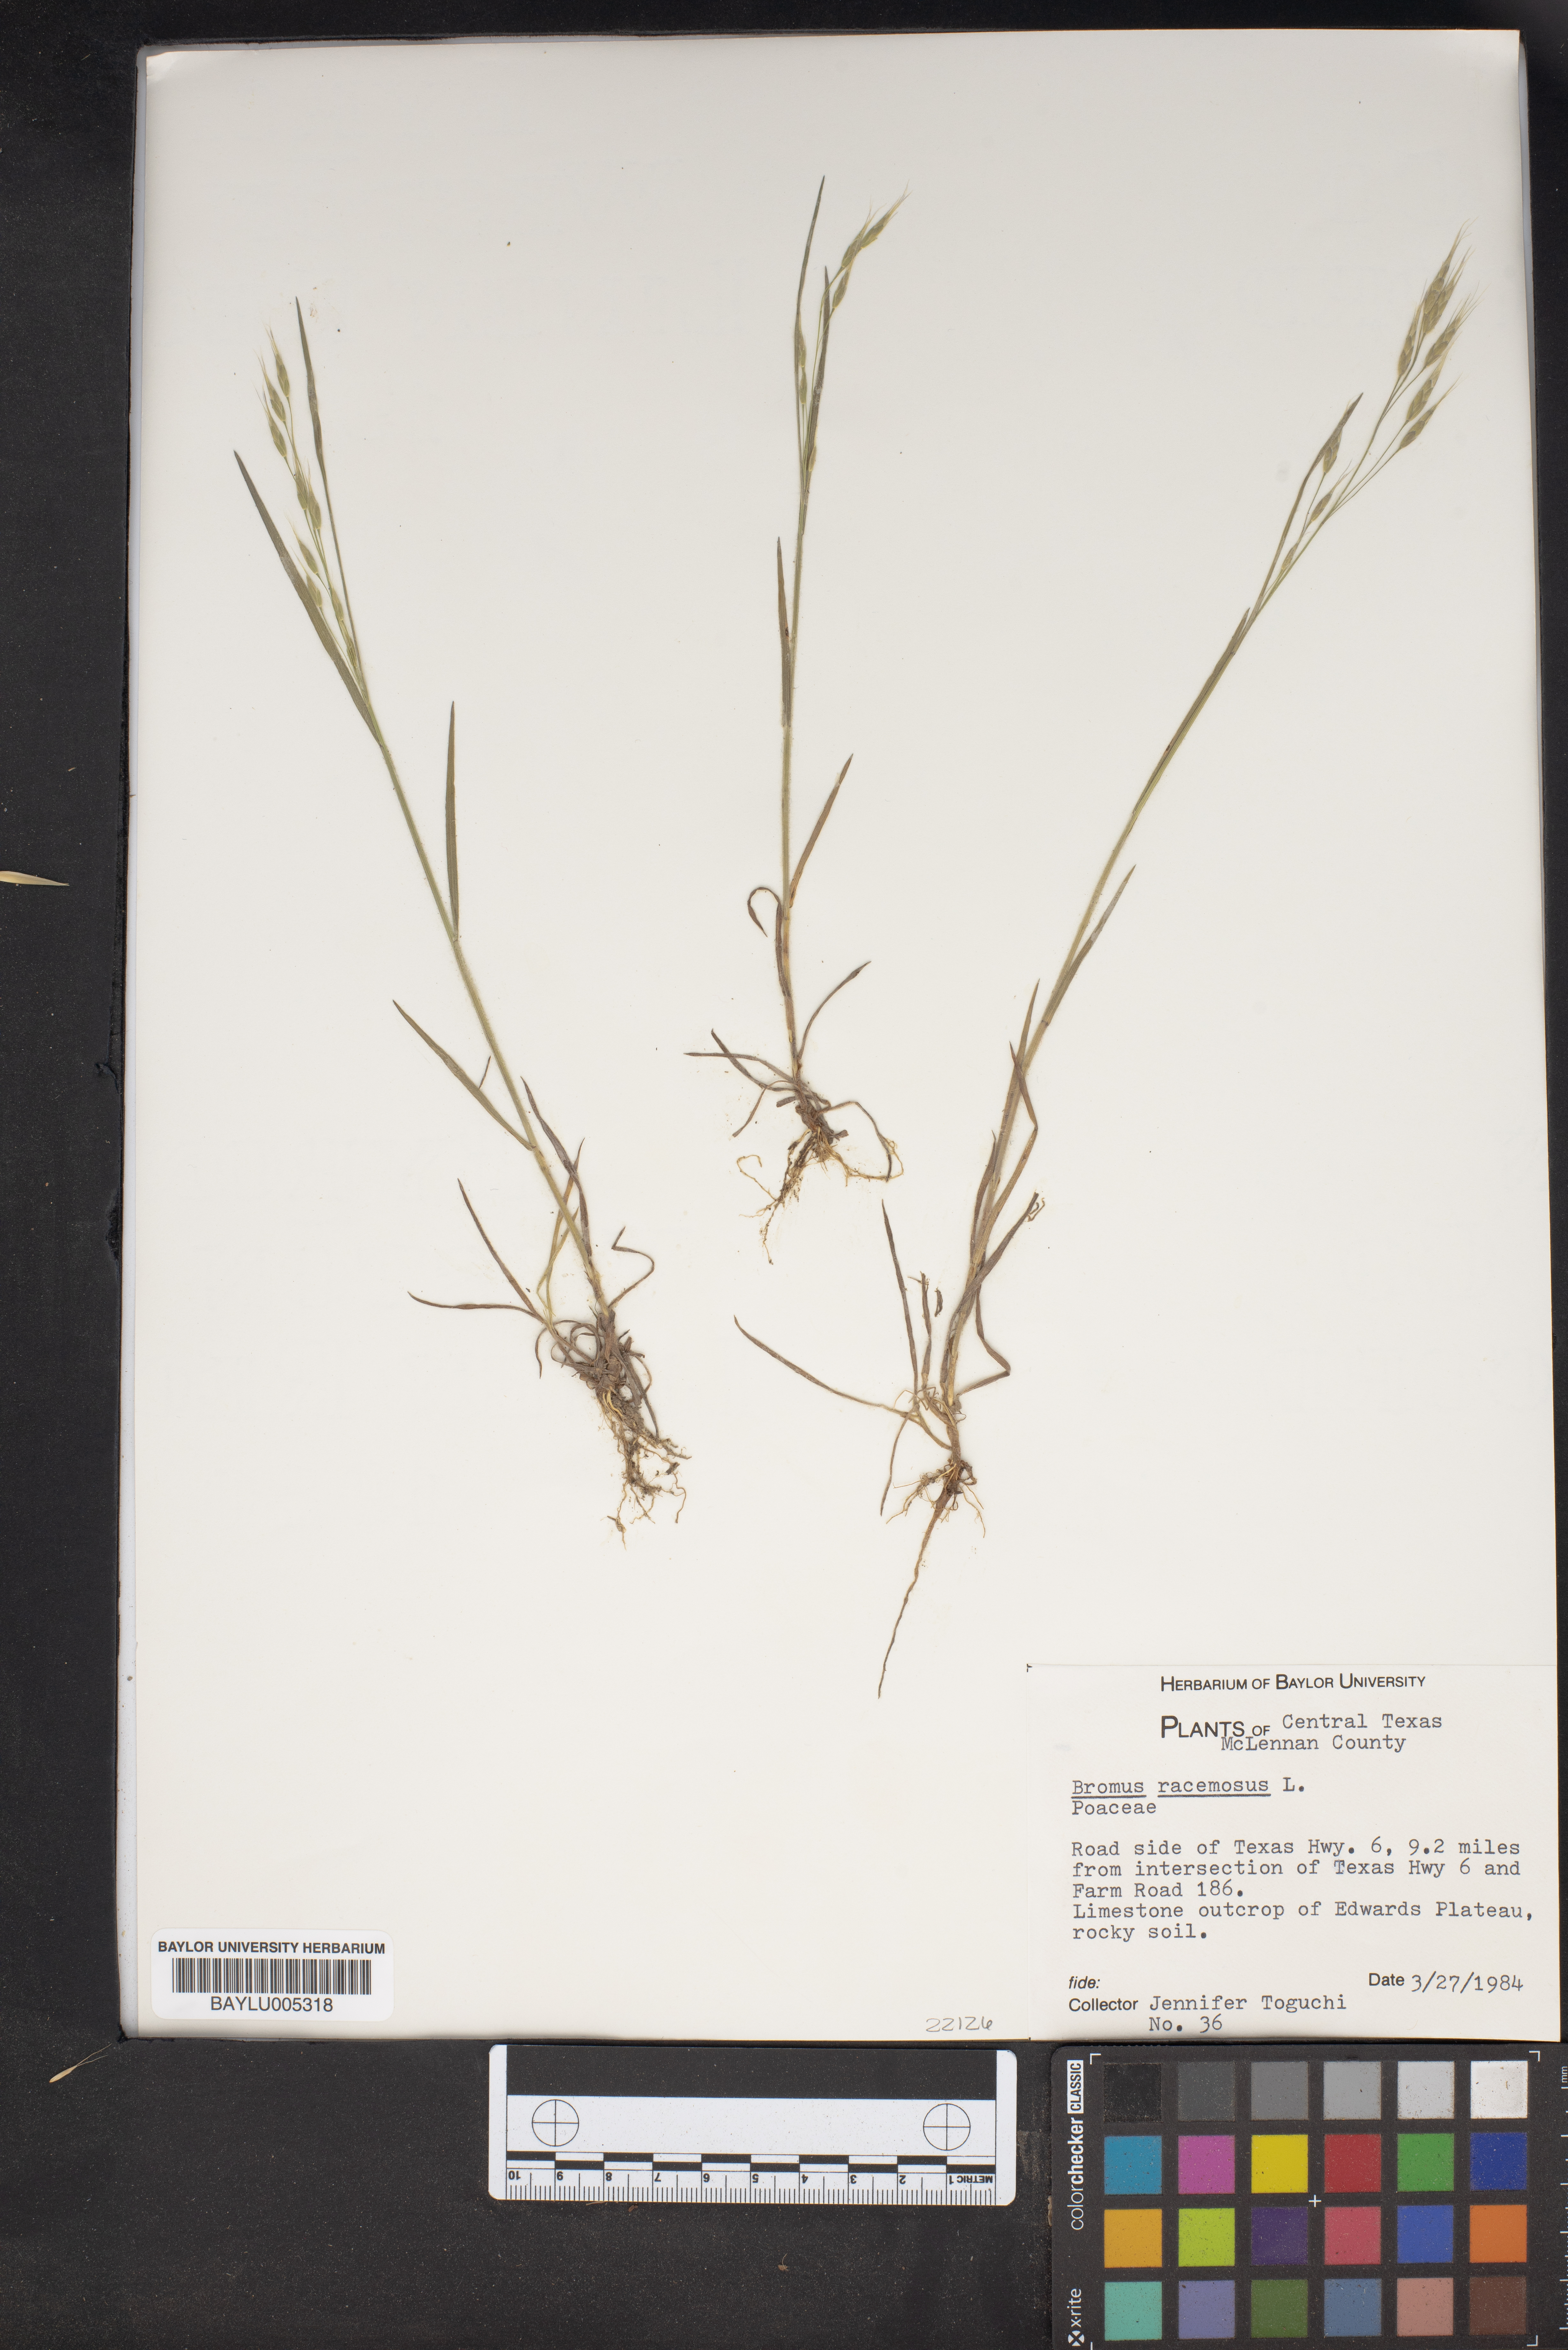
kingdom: Plantae
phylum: Tracheophyta
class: Liliopsida
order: Poales
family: Poaceae
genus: Bromus
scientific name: Bromus racemosus
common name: Bald brome
